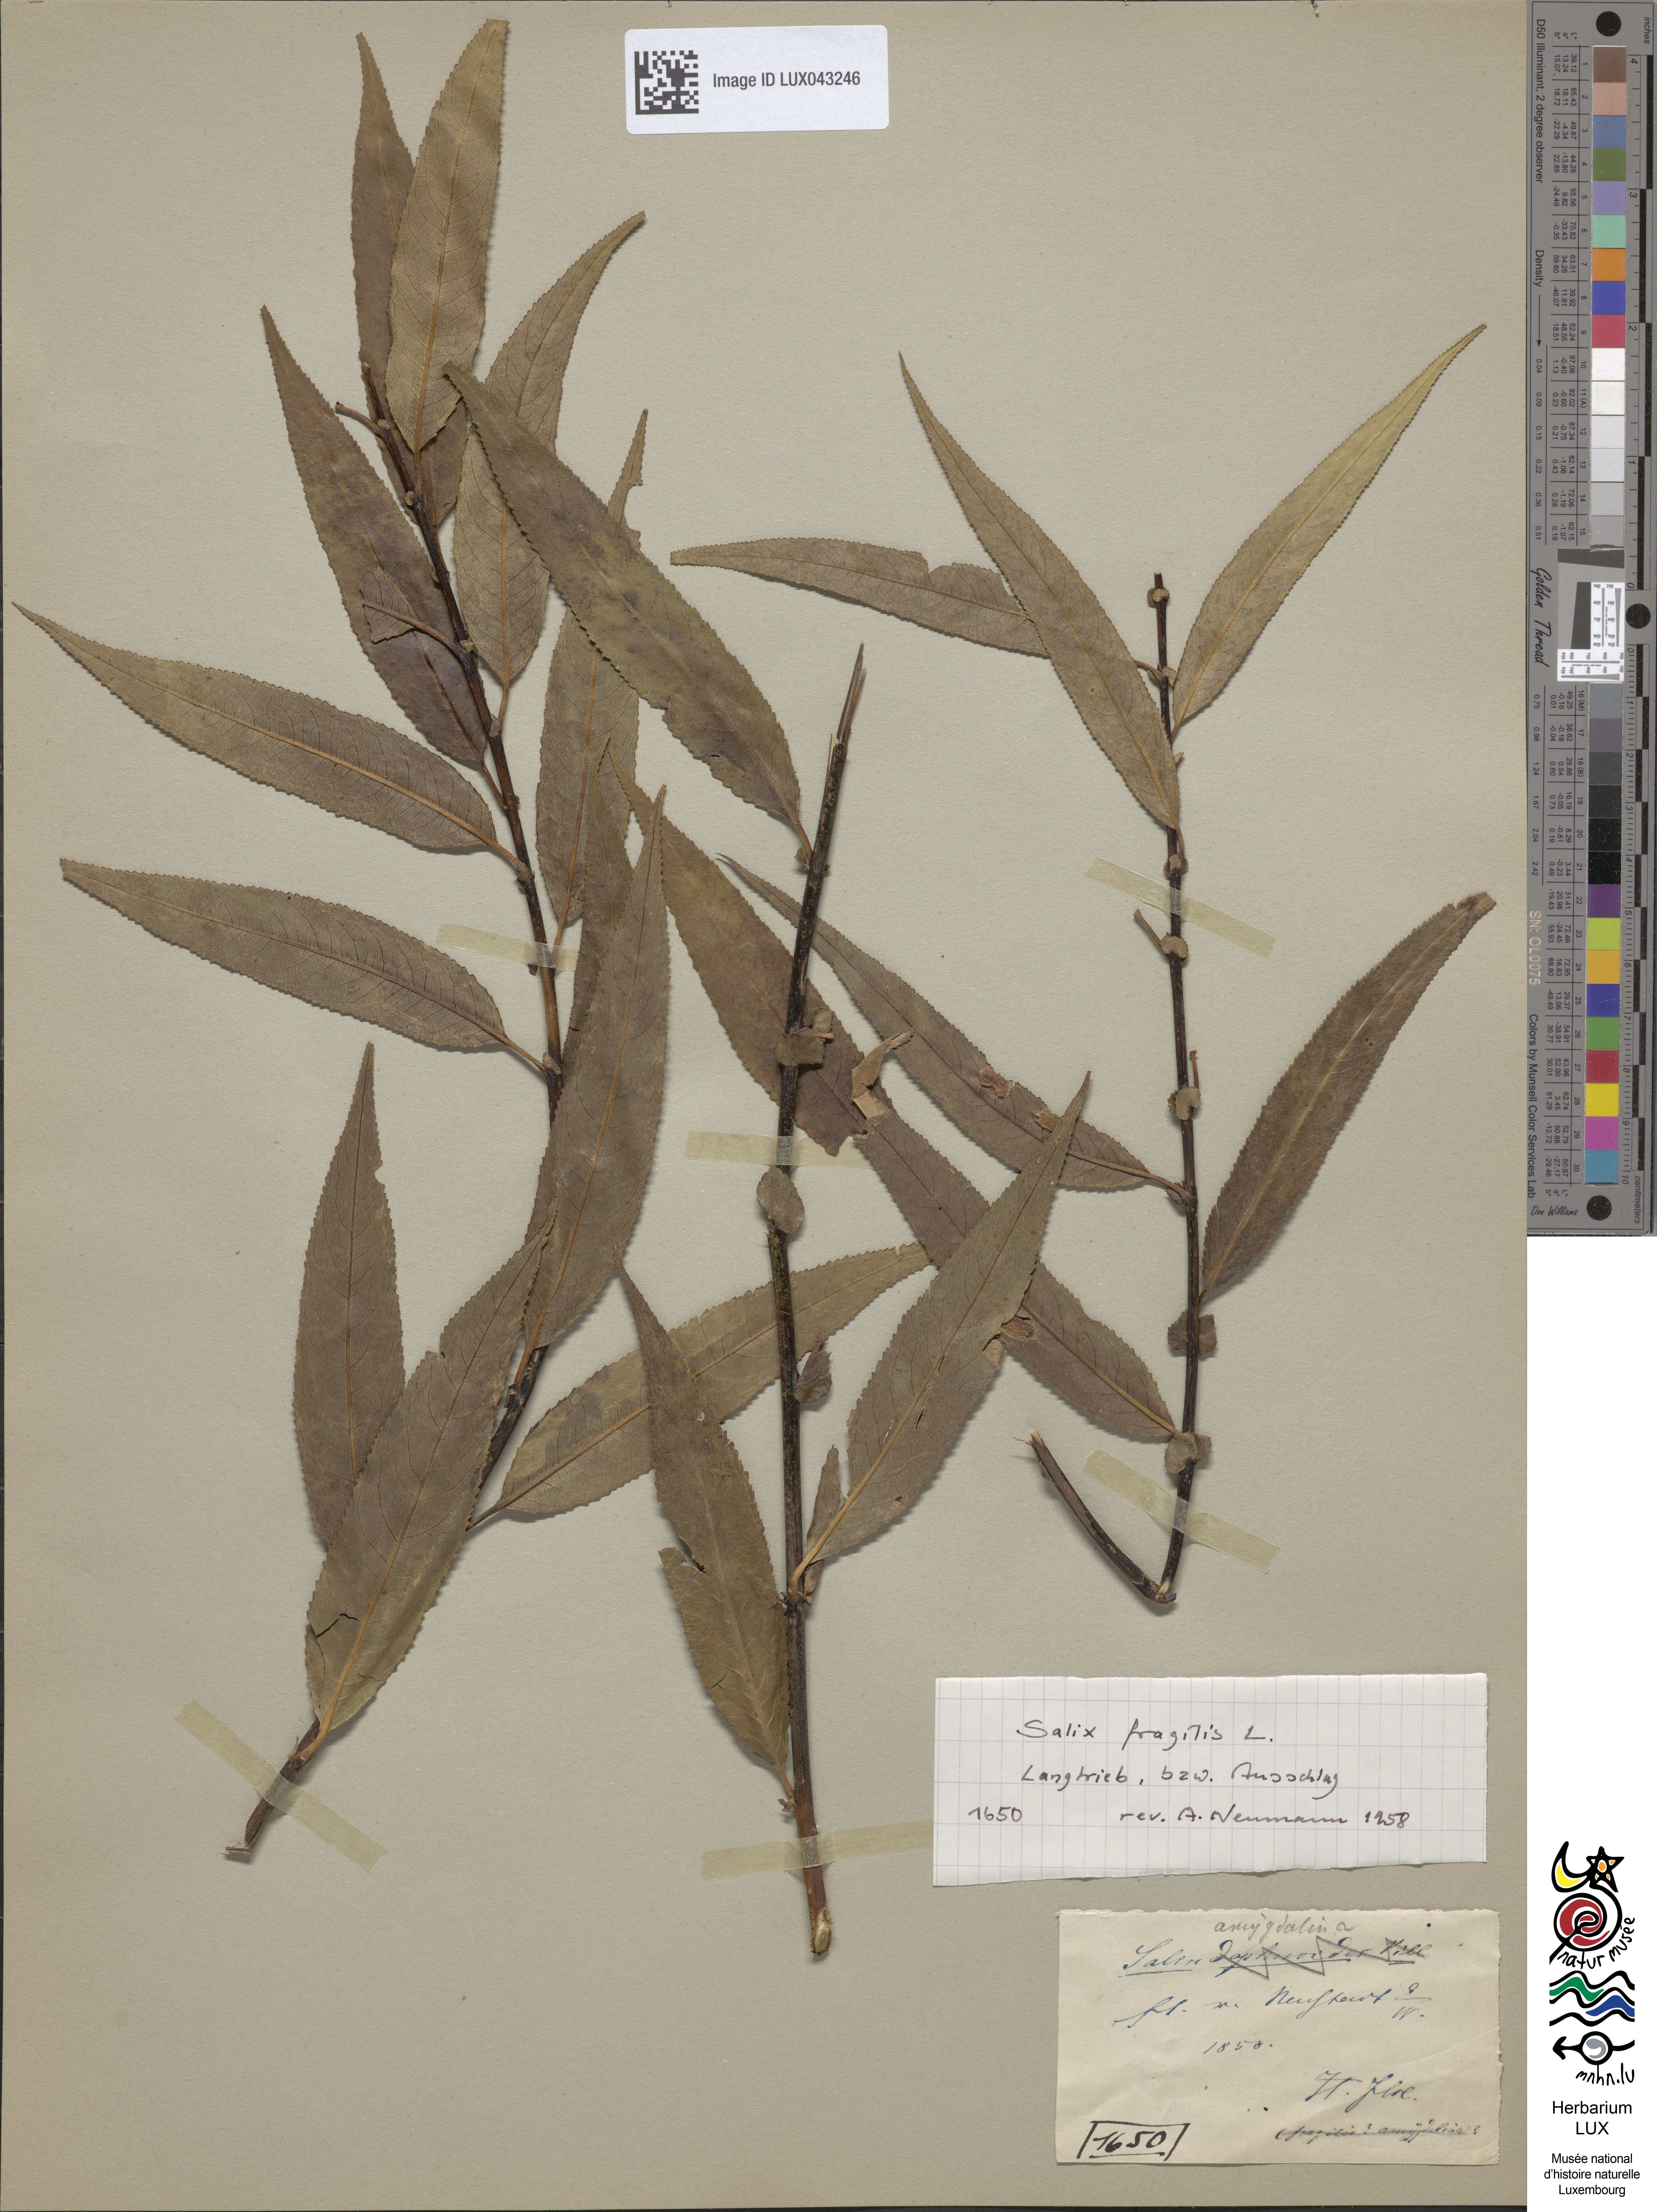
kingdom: Plantae
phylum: Tracheophyta
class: Magnoliopsida
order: Malpighiales
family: Salicaceae
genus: Salix
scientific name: Salix triandra
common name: Almond willow
